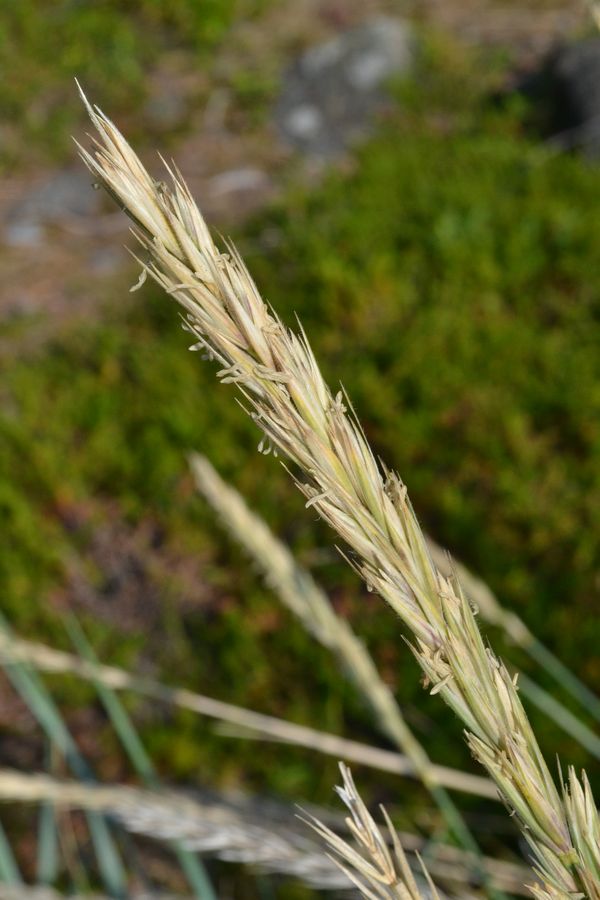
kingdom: Plantae
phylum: Tracheophyta
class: Liliopsida
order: Poales
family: Poaceae
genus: Leymus
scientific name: Leymus arenarius
